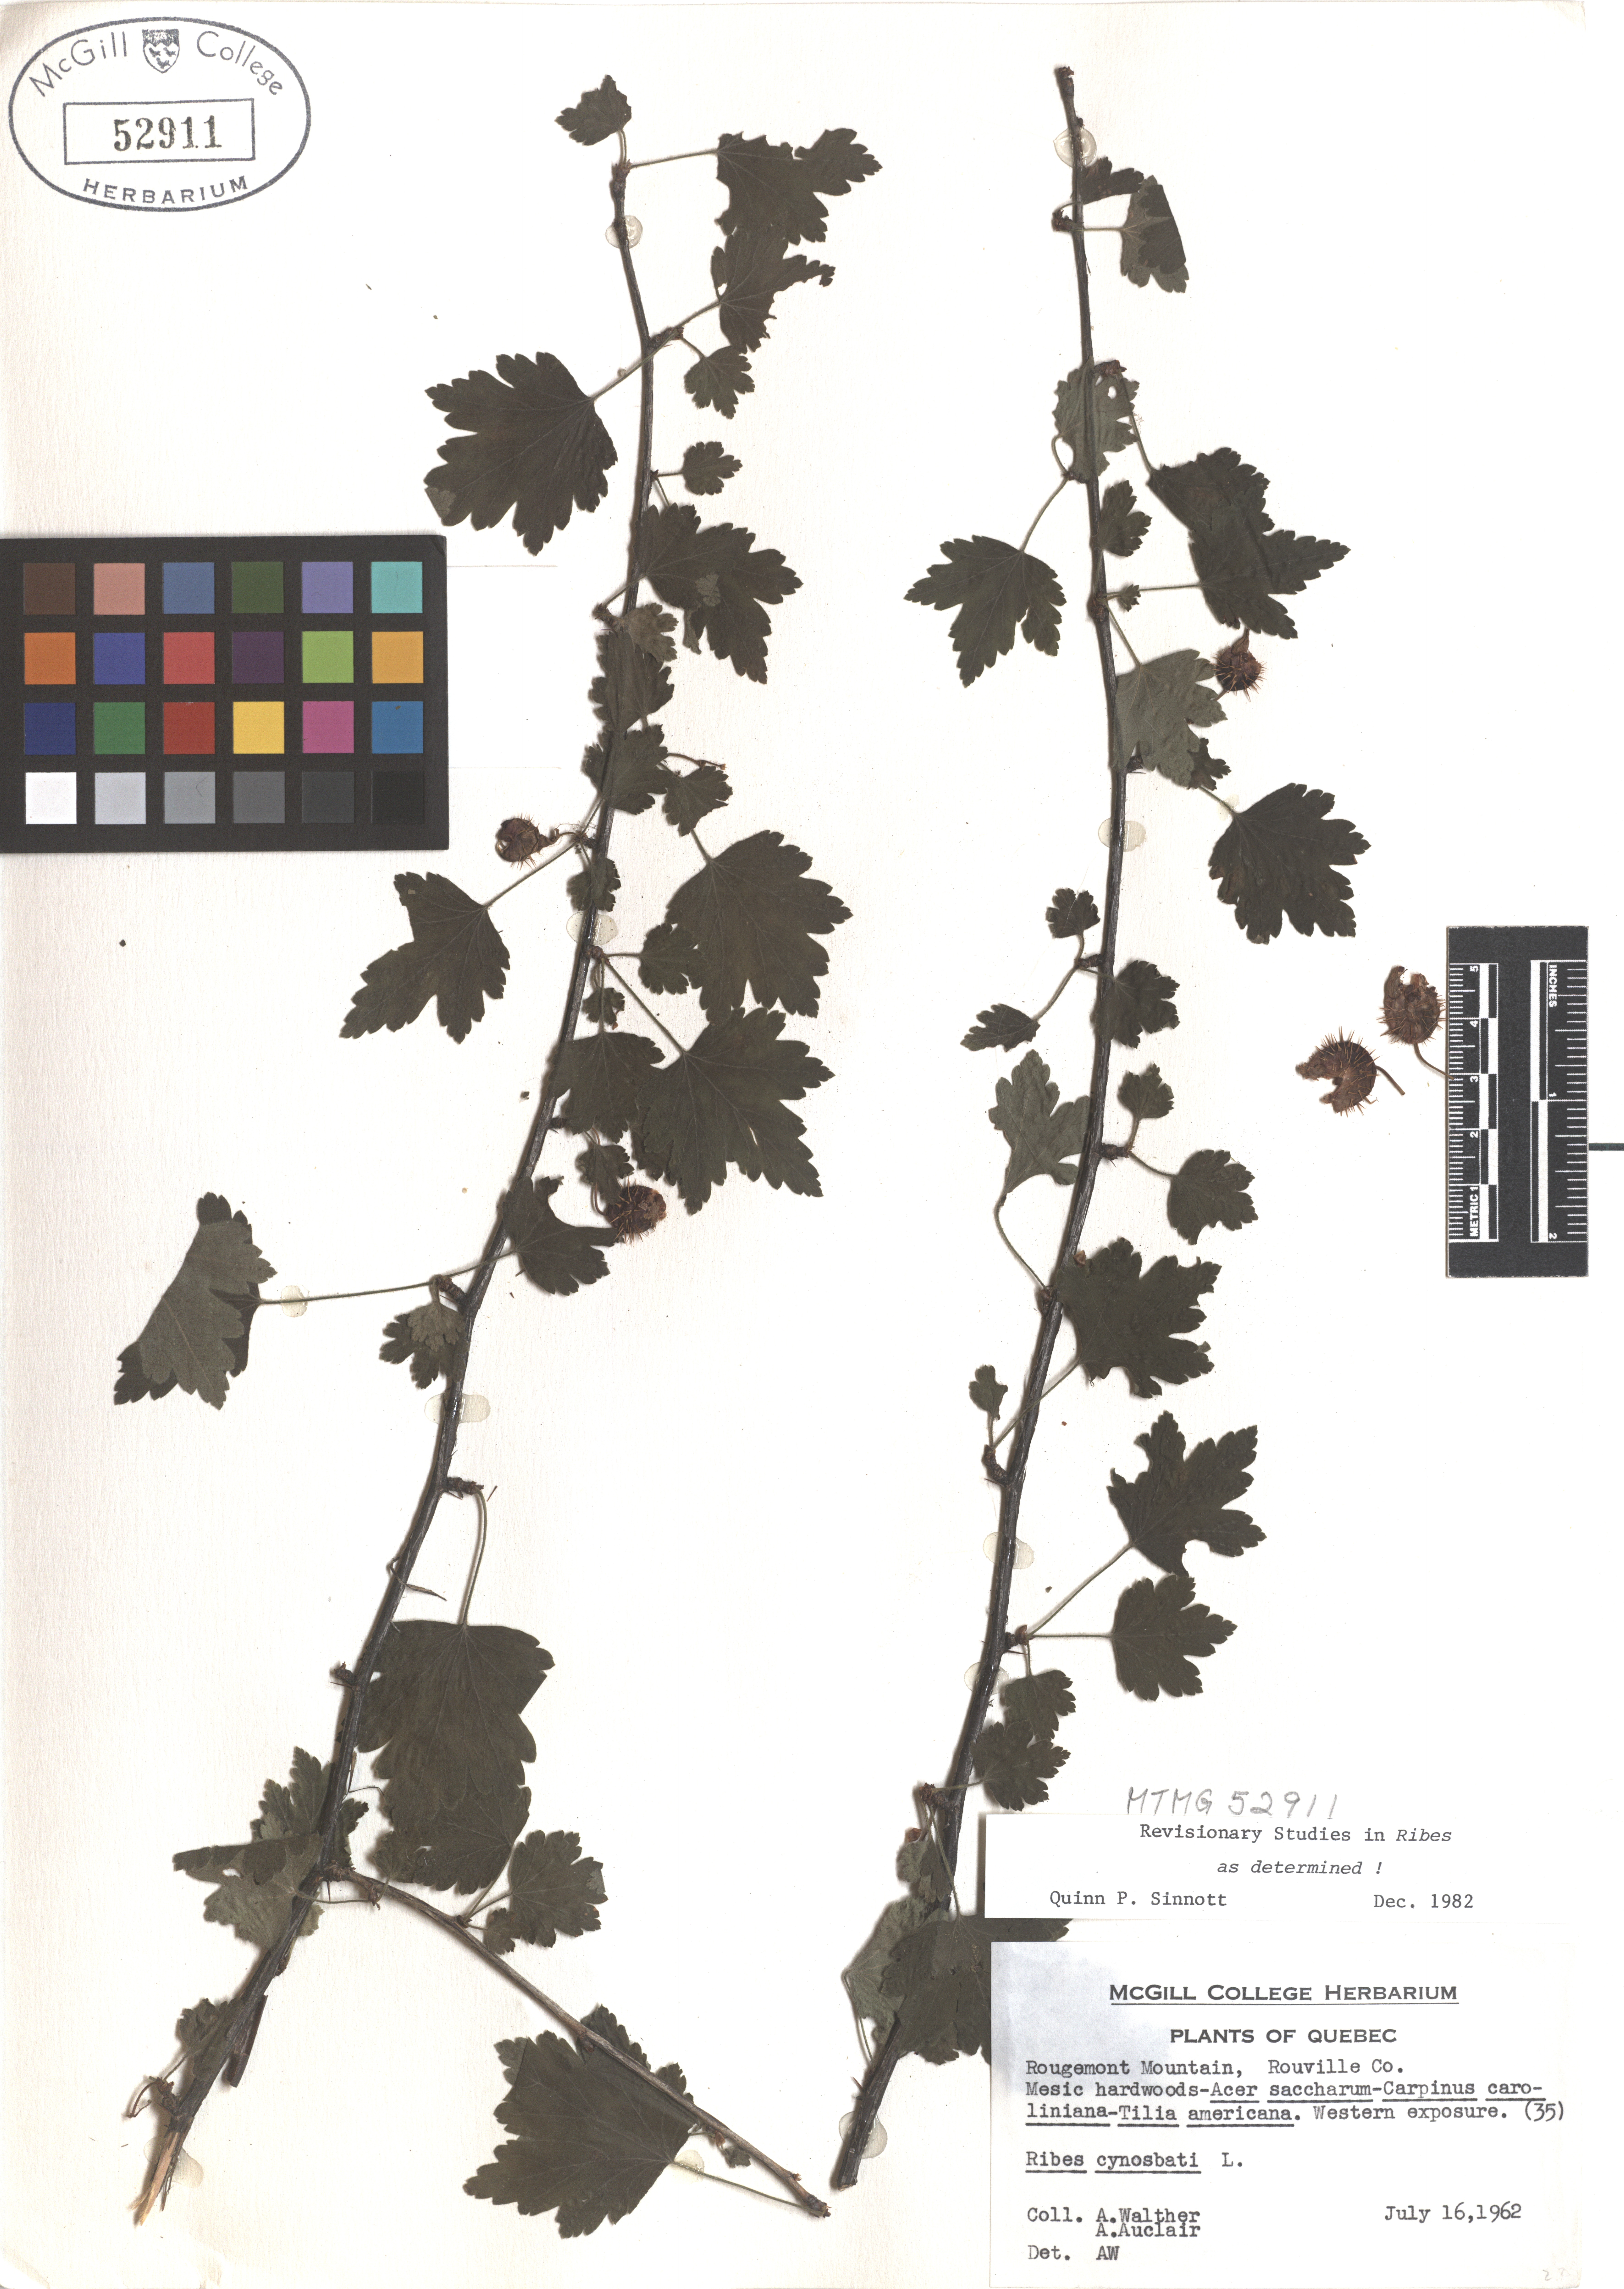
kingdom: Plantae
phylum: Tracheophyta
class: Magnoliopsida
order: Saxifragales
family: Grossulariaceae
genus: Ribes
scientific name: Ribes cynosbati
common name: American gooseberry
